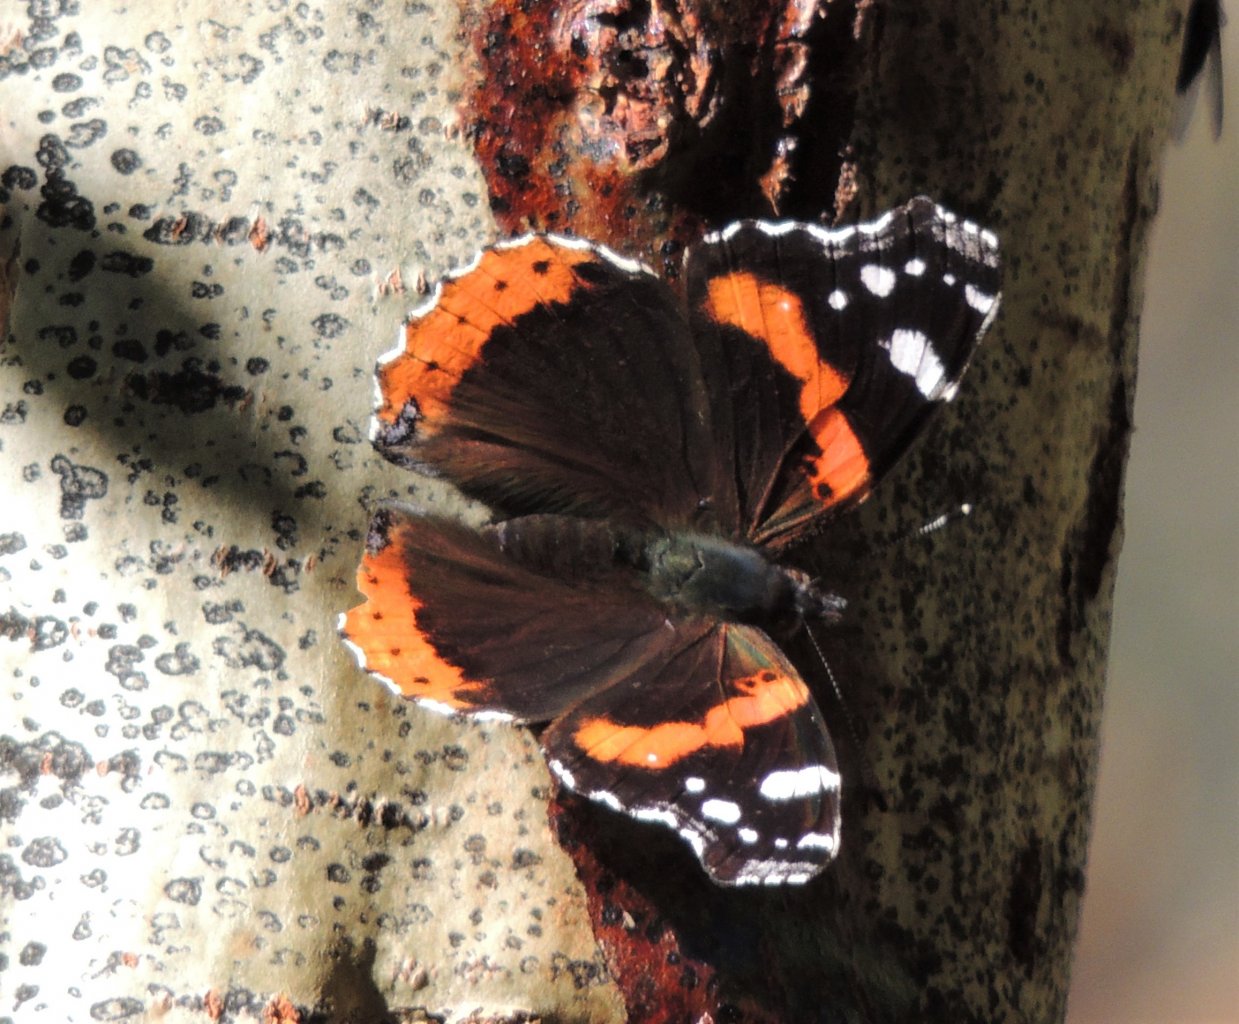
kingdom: Animalia
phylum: Arthropoda
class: Insecta
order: Lepidoptera
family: Nymphalidae
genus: Vanessa
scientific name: Vanessa atalanta
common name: Red Admiral
